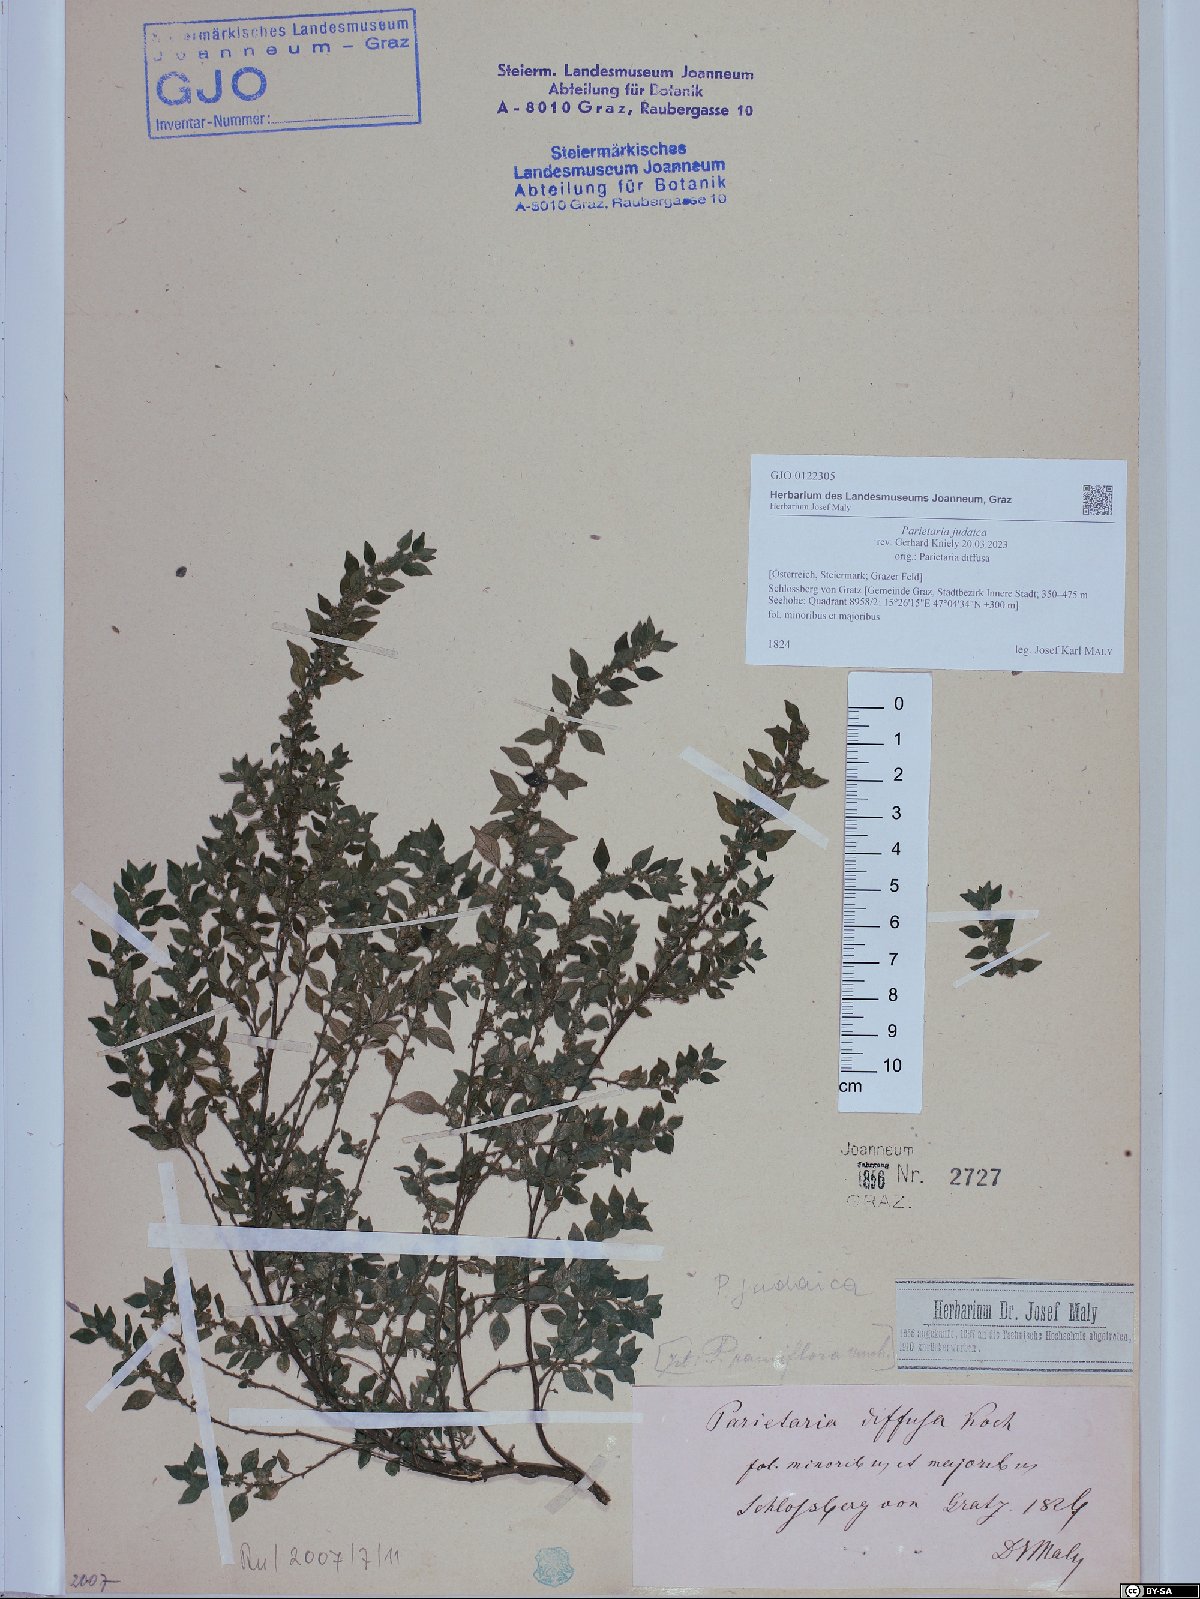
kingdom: Plantae
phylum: Tracheophyta
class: Magnoliopsida
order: Rosales
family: Urticaceae
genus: Parietaria
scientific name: Parietaria judaica
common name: Pellitory-of-the-wall
